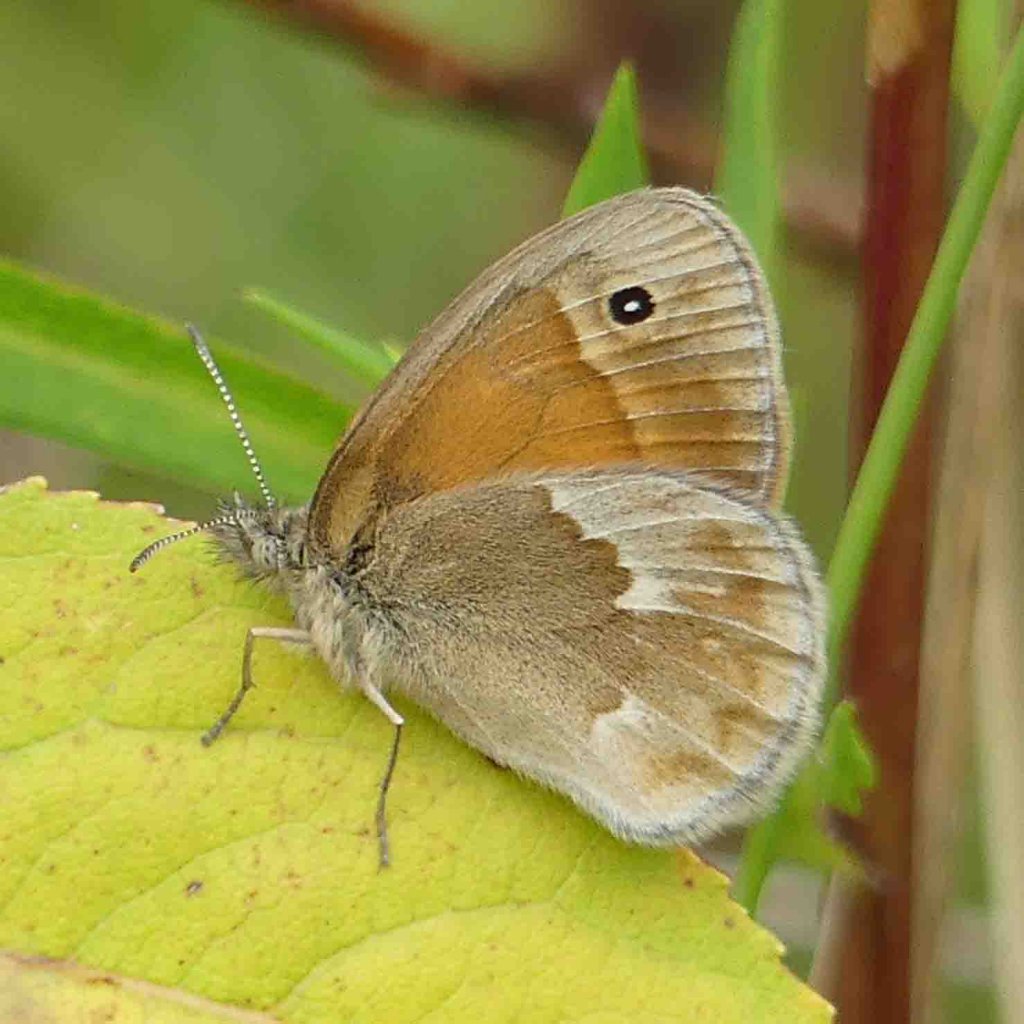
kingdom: Animalia
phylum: Arthropoda
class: Insecta
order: Lepidoptera
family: Nymphalidae
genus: Coenonympha
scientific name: Coenonympha tullia
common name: Large Heath
